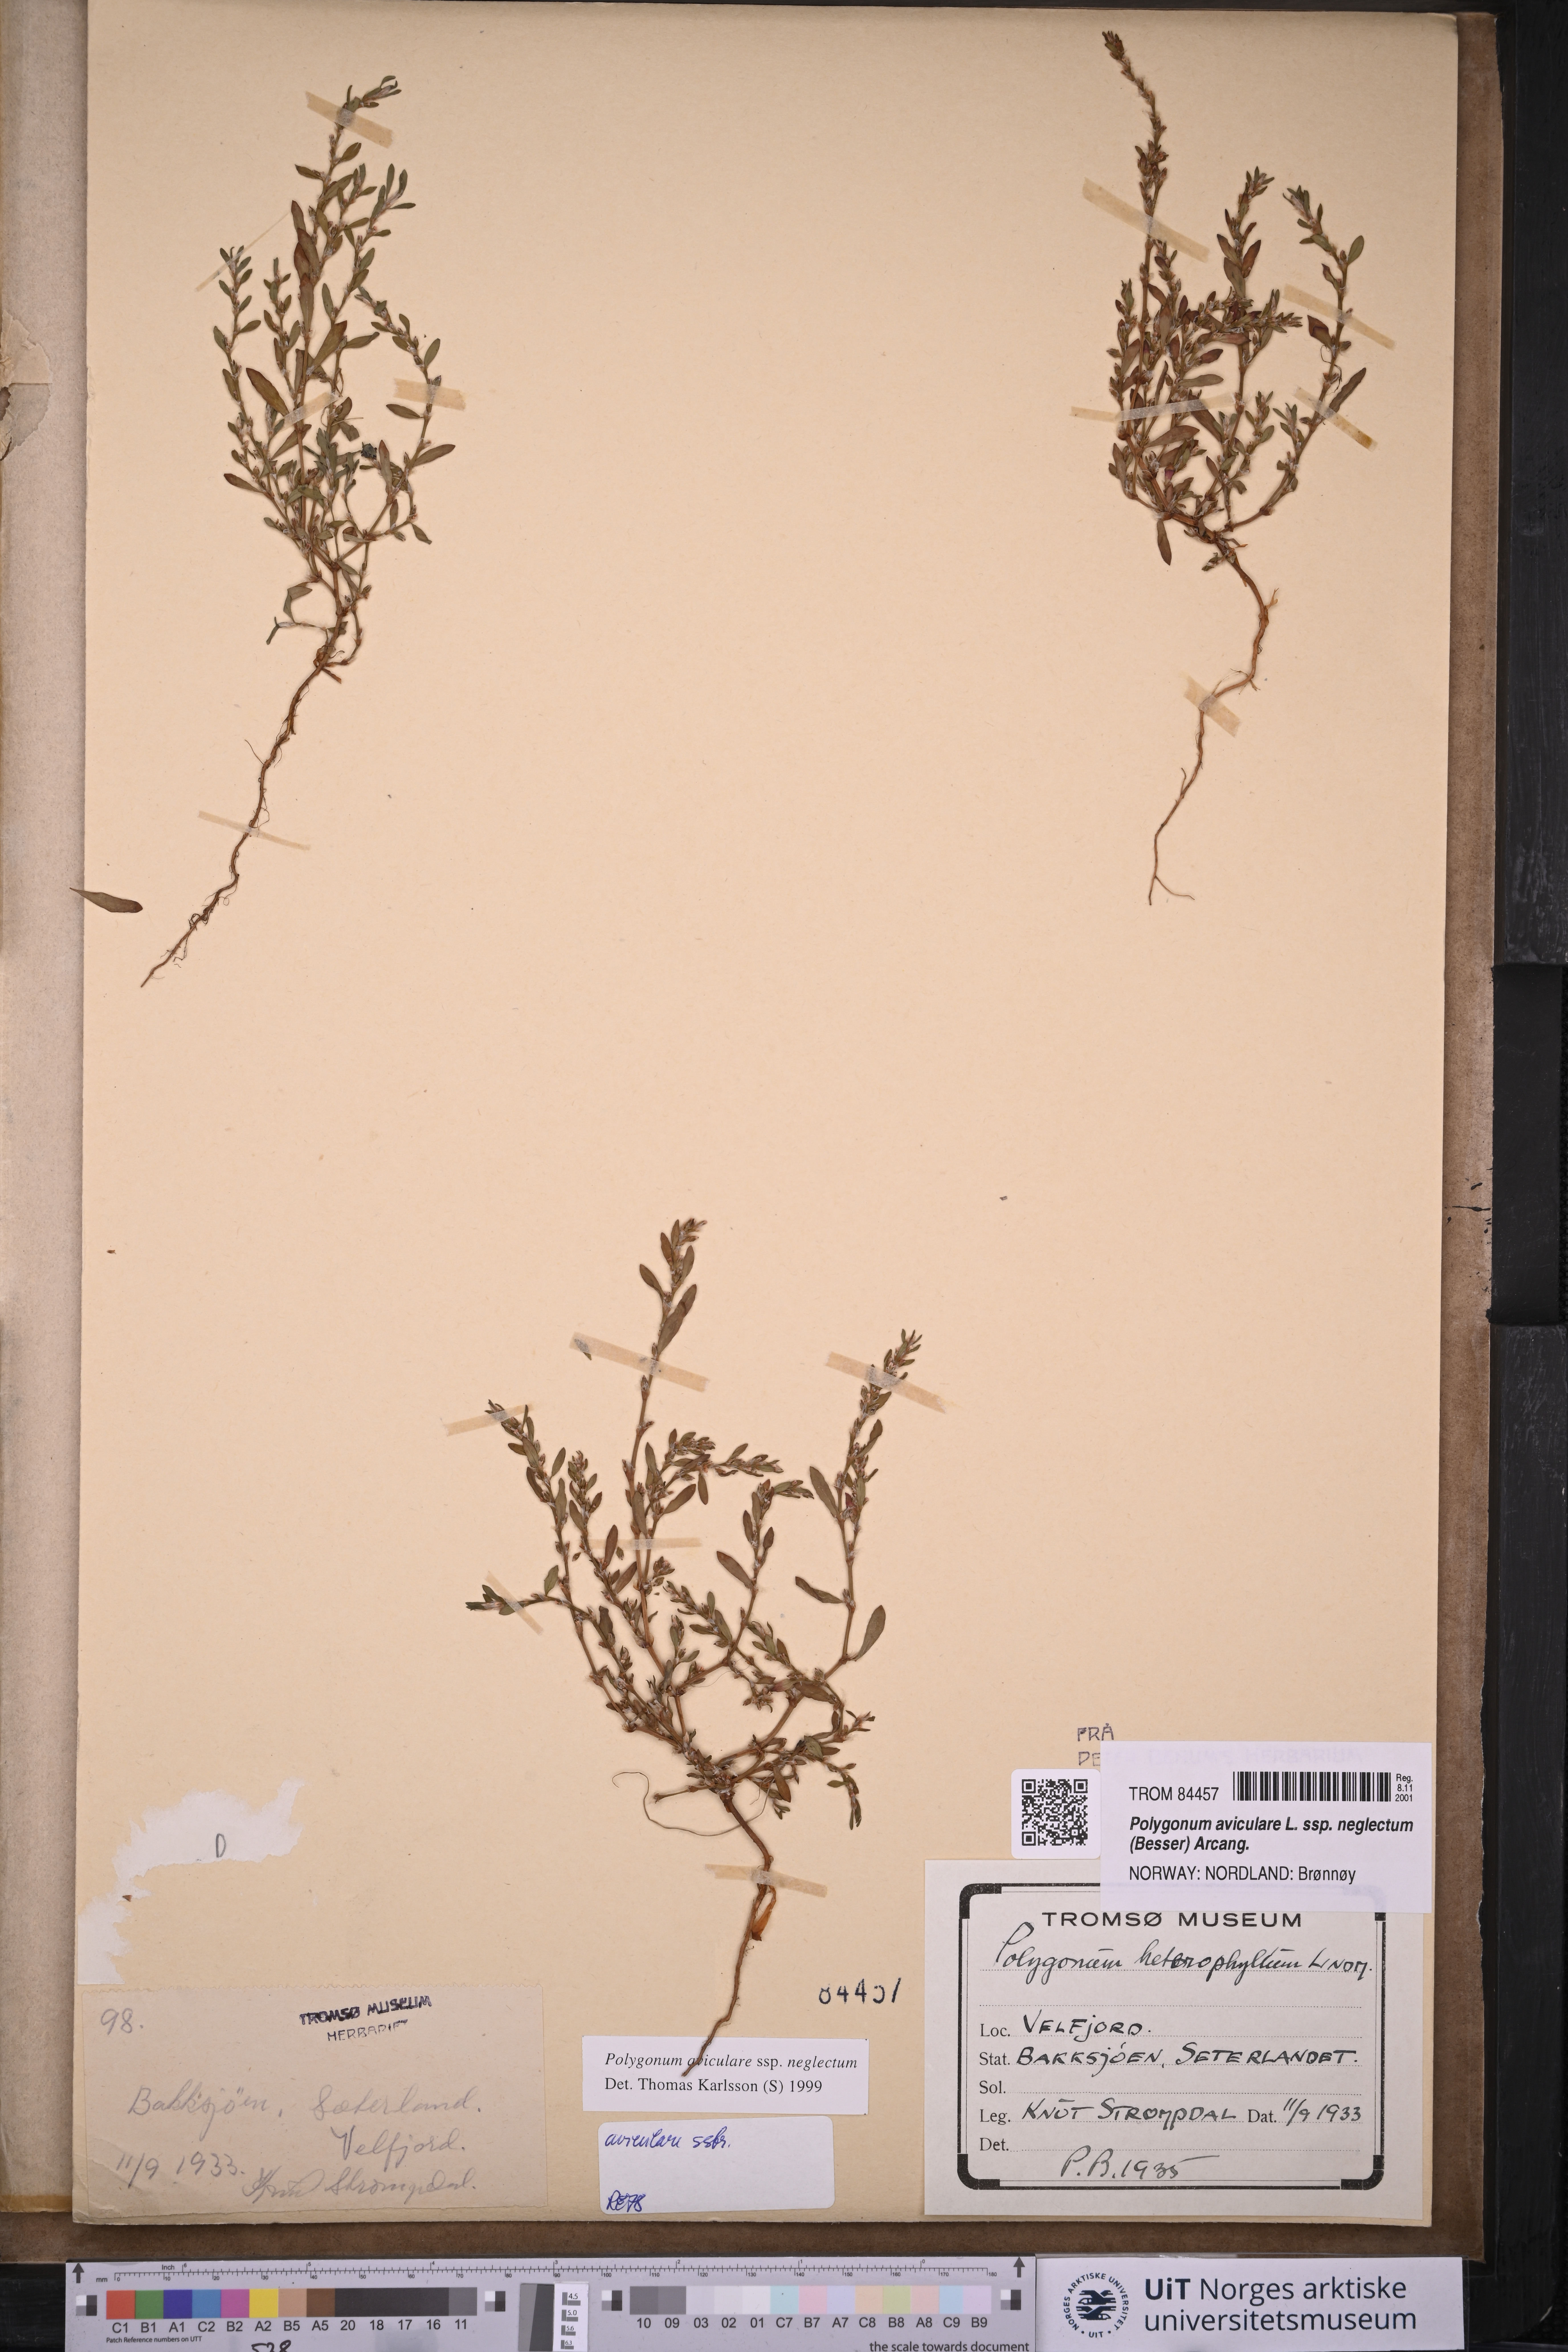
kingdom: Plantae
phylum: Tracheophyta
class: Magnoliopsida
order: Caryophyllales
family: Polygonaceae
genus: Polygonum
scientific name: Polygonum aviculare
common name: Prostrate knotweed
